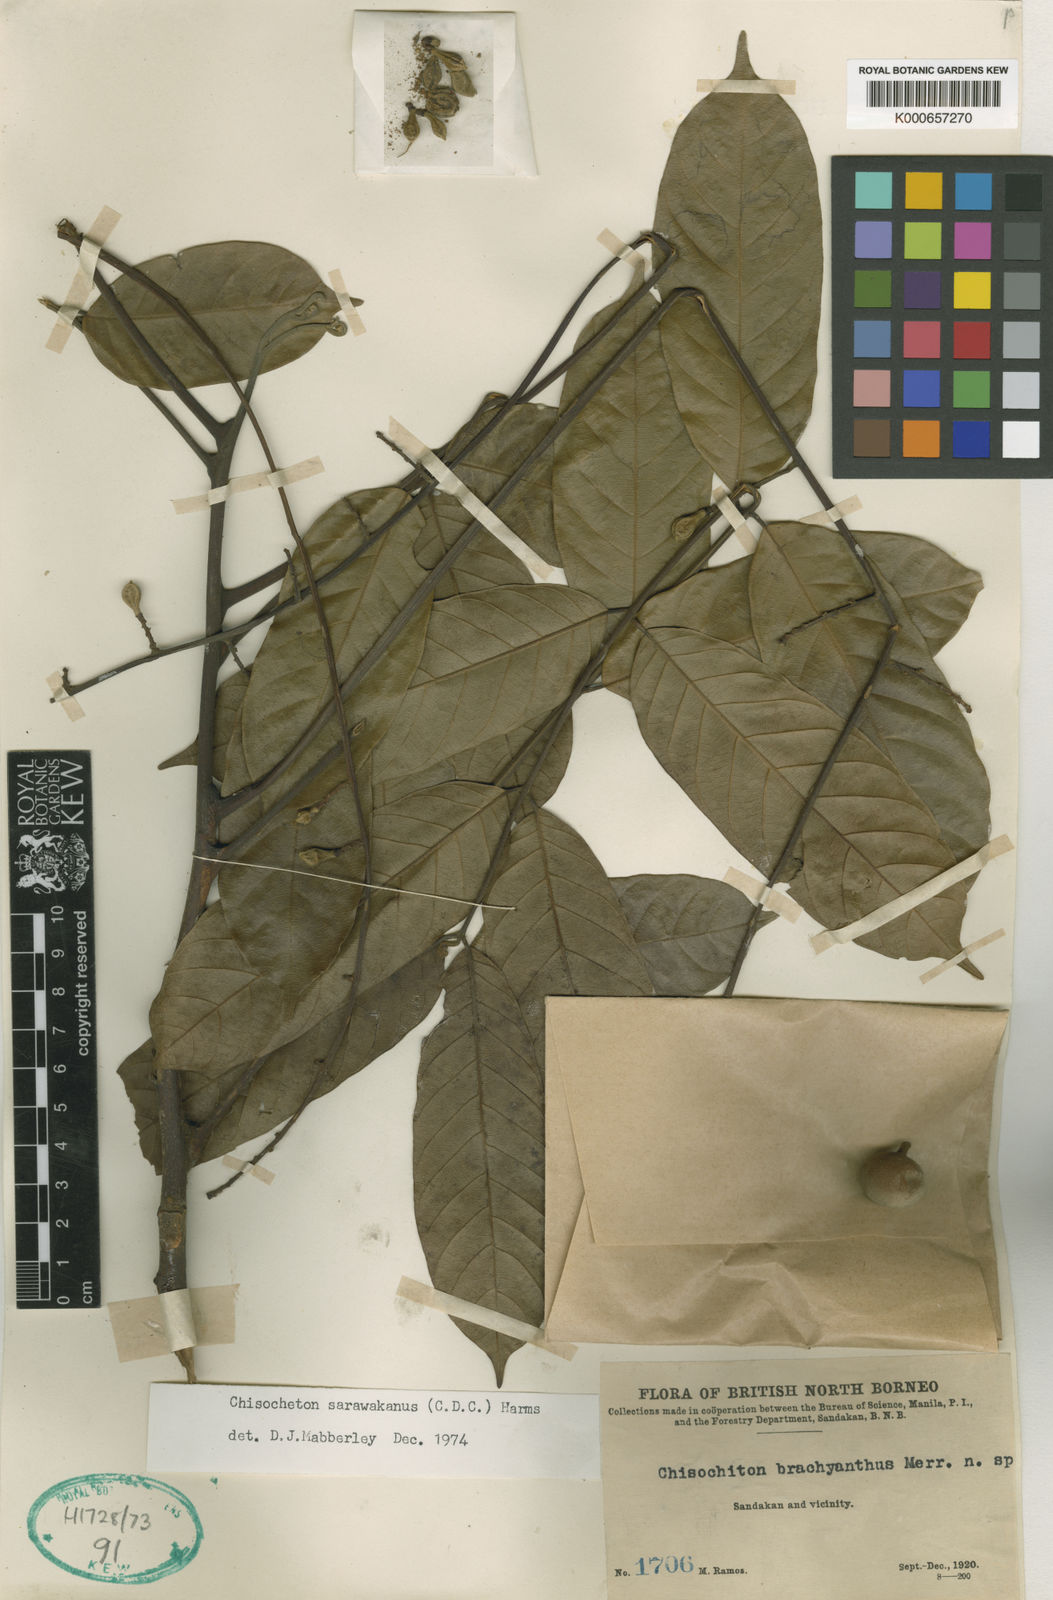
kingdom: Plantae
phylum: Tracheophyta
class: Magnoliopsida
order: Sapindales
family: Meliaceae
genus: Chisocheton
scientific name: Chisocheton sarawakanus
